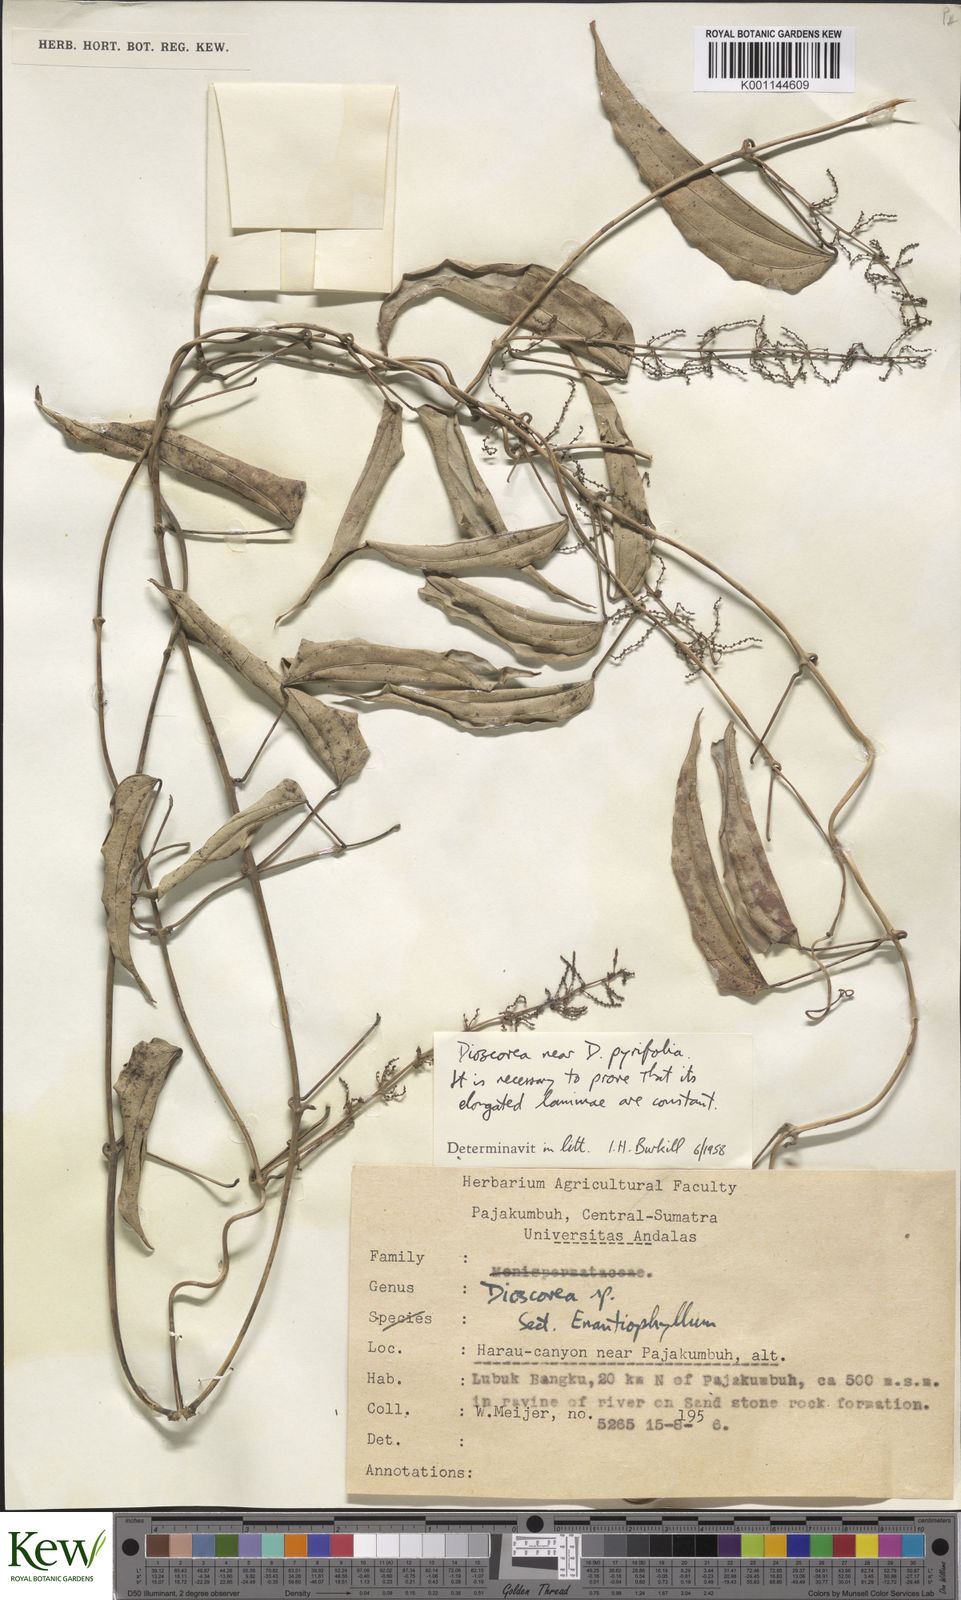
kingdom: Plantae
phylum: Tracheophyta
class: Liliopsida
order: Dioscoreales
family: Dioscoreaceae
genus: Dioscorea
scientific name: Dioscorea pyrifolia
